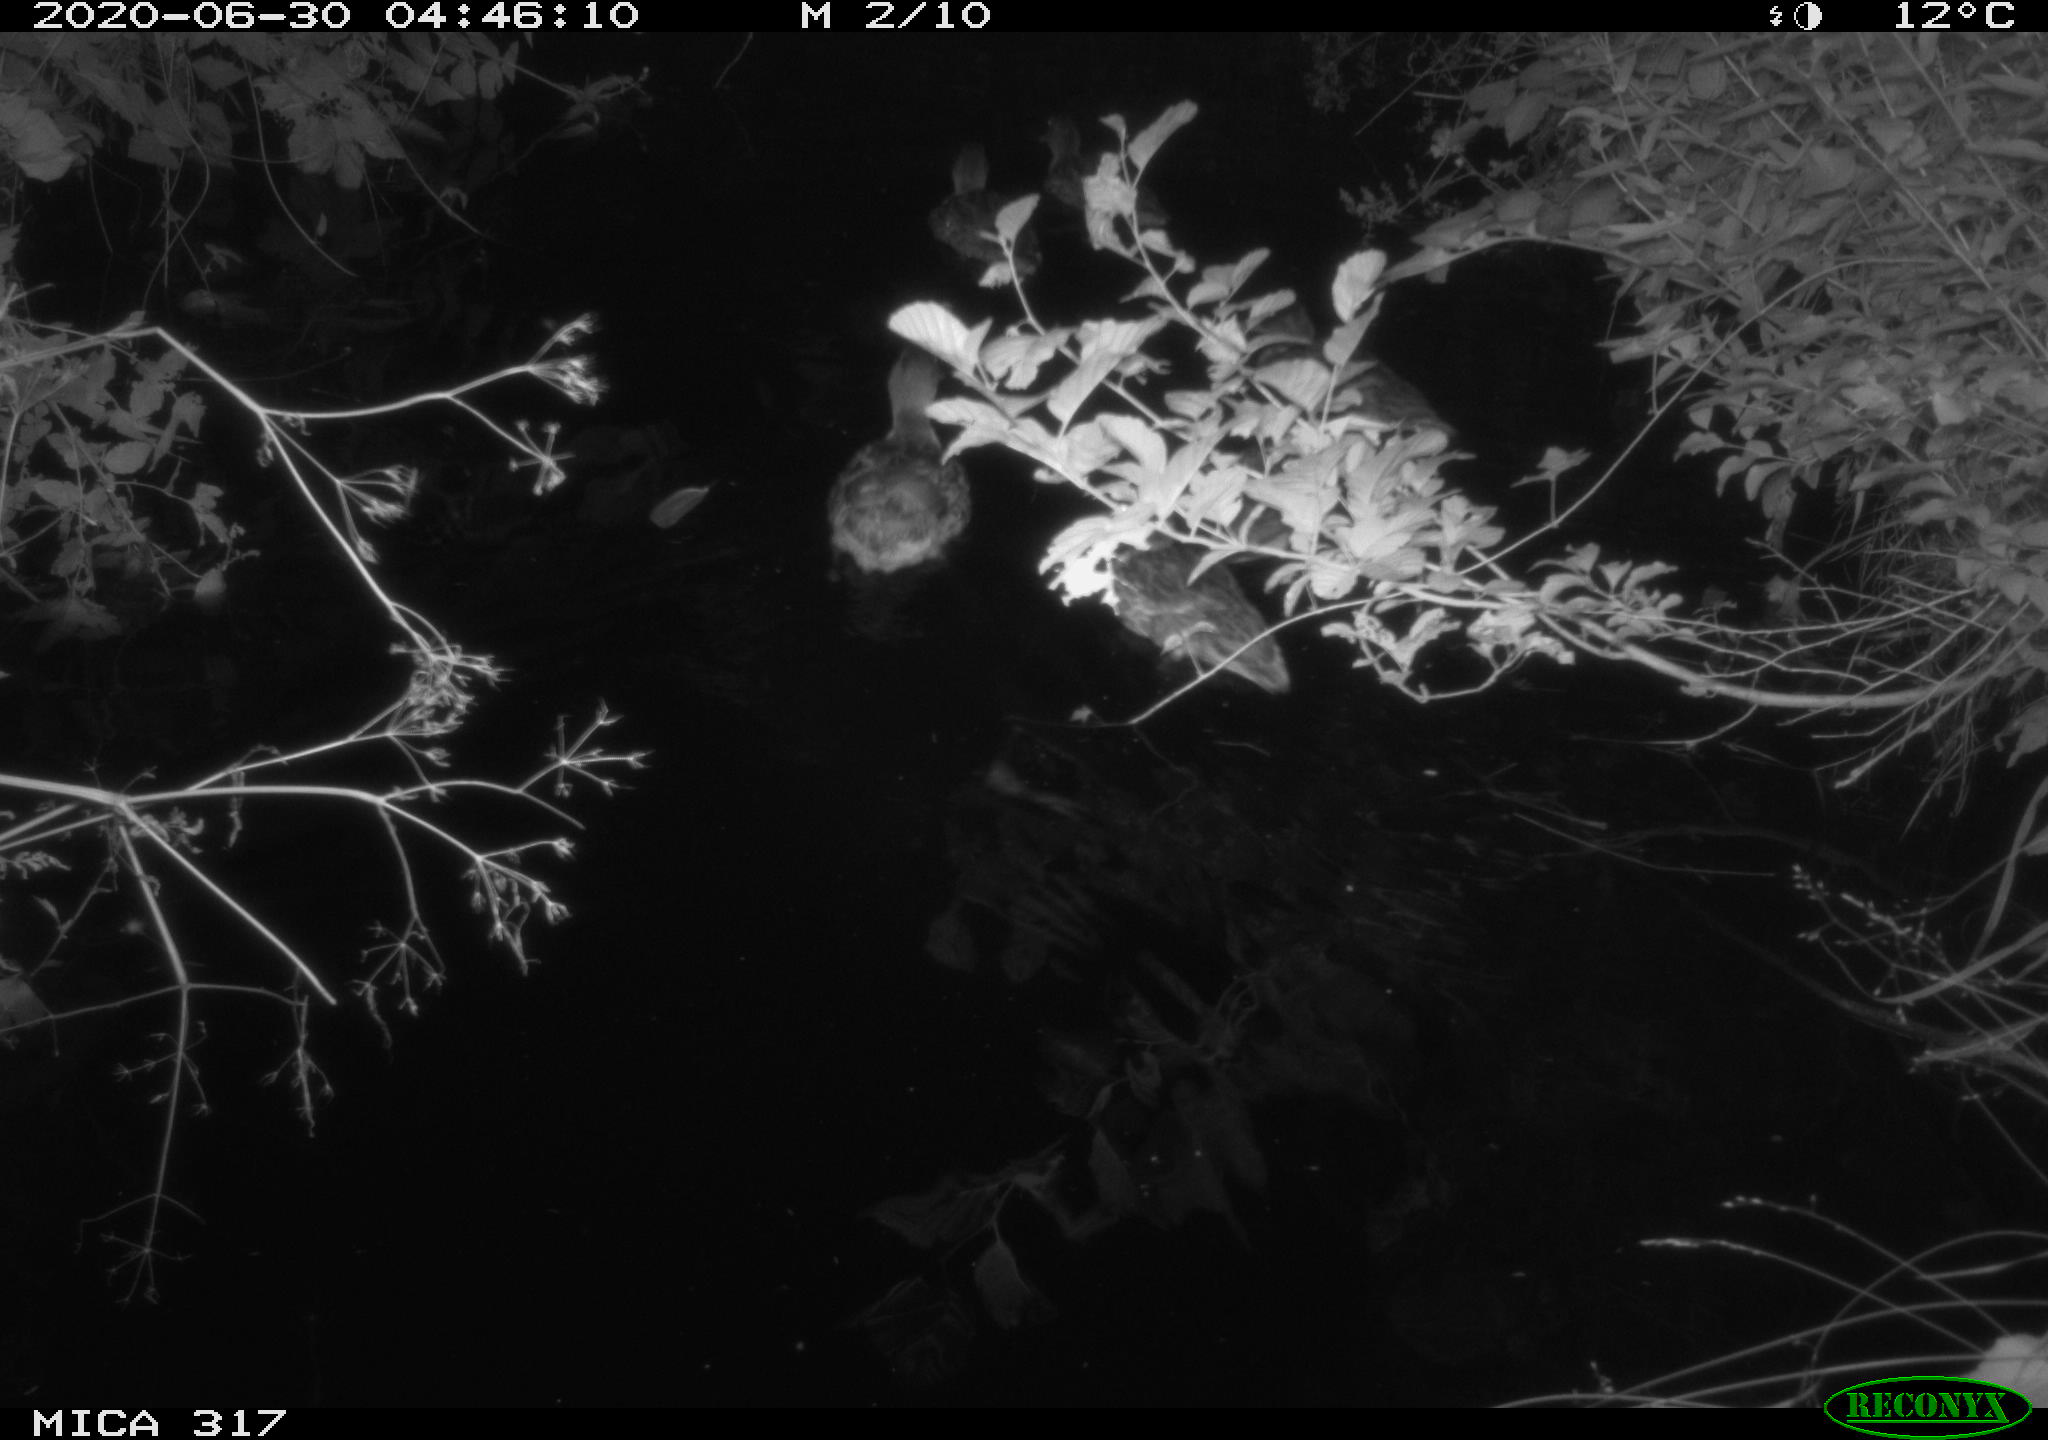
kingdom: Animalia
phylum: Chordata
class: Aves
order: Anseriformes
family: Anatidae
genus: Anas
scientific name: Anas platyrhynchos
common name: Mallard
